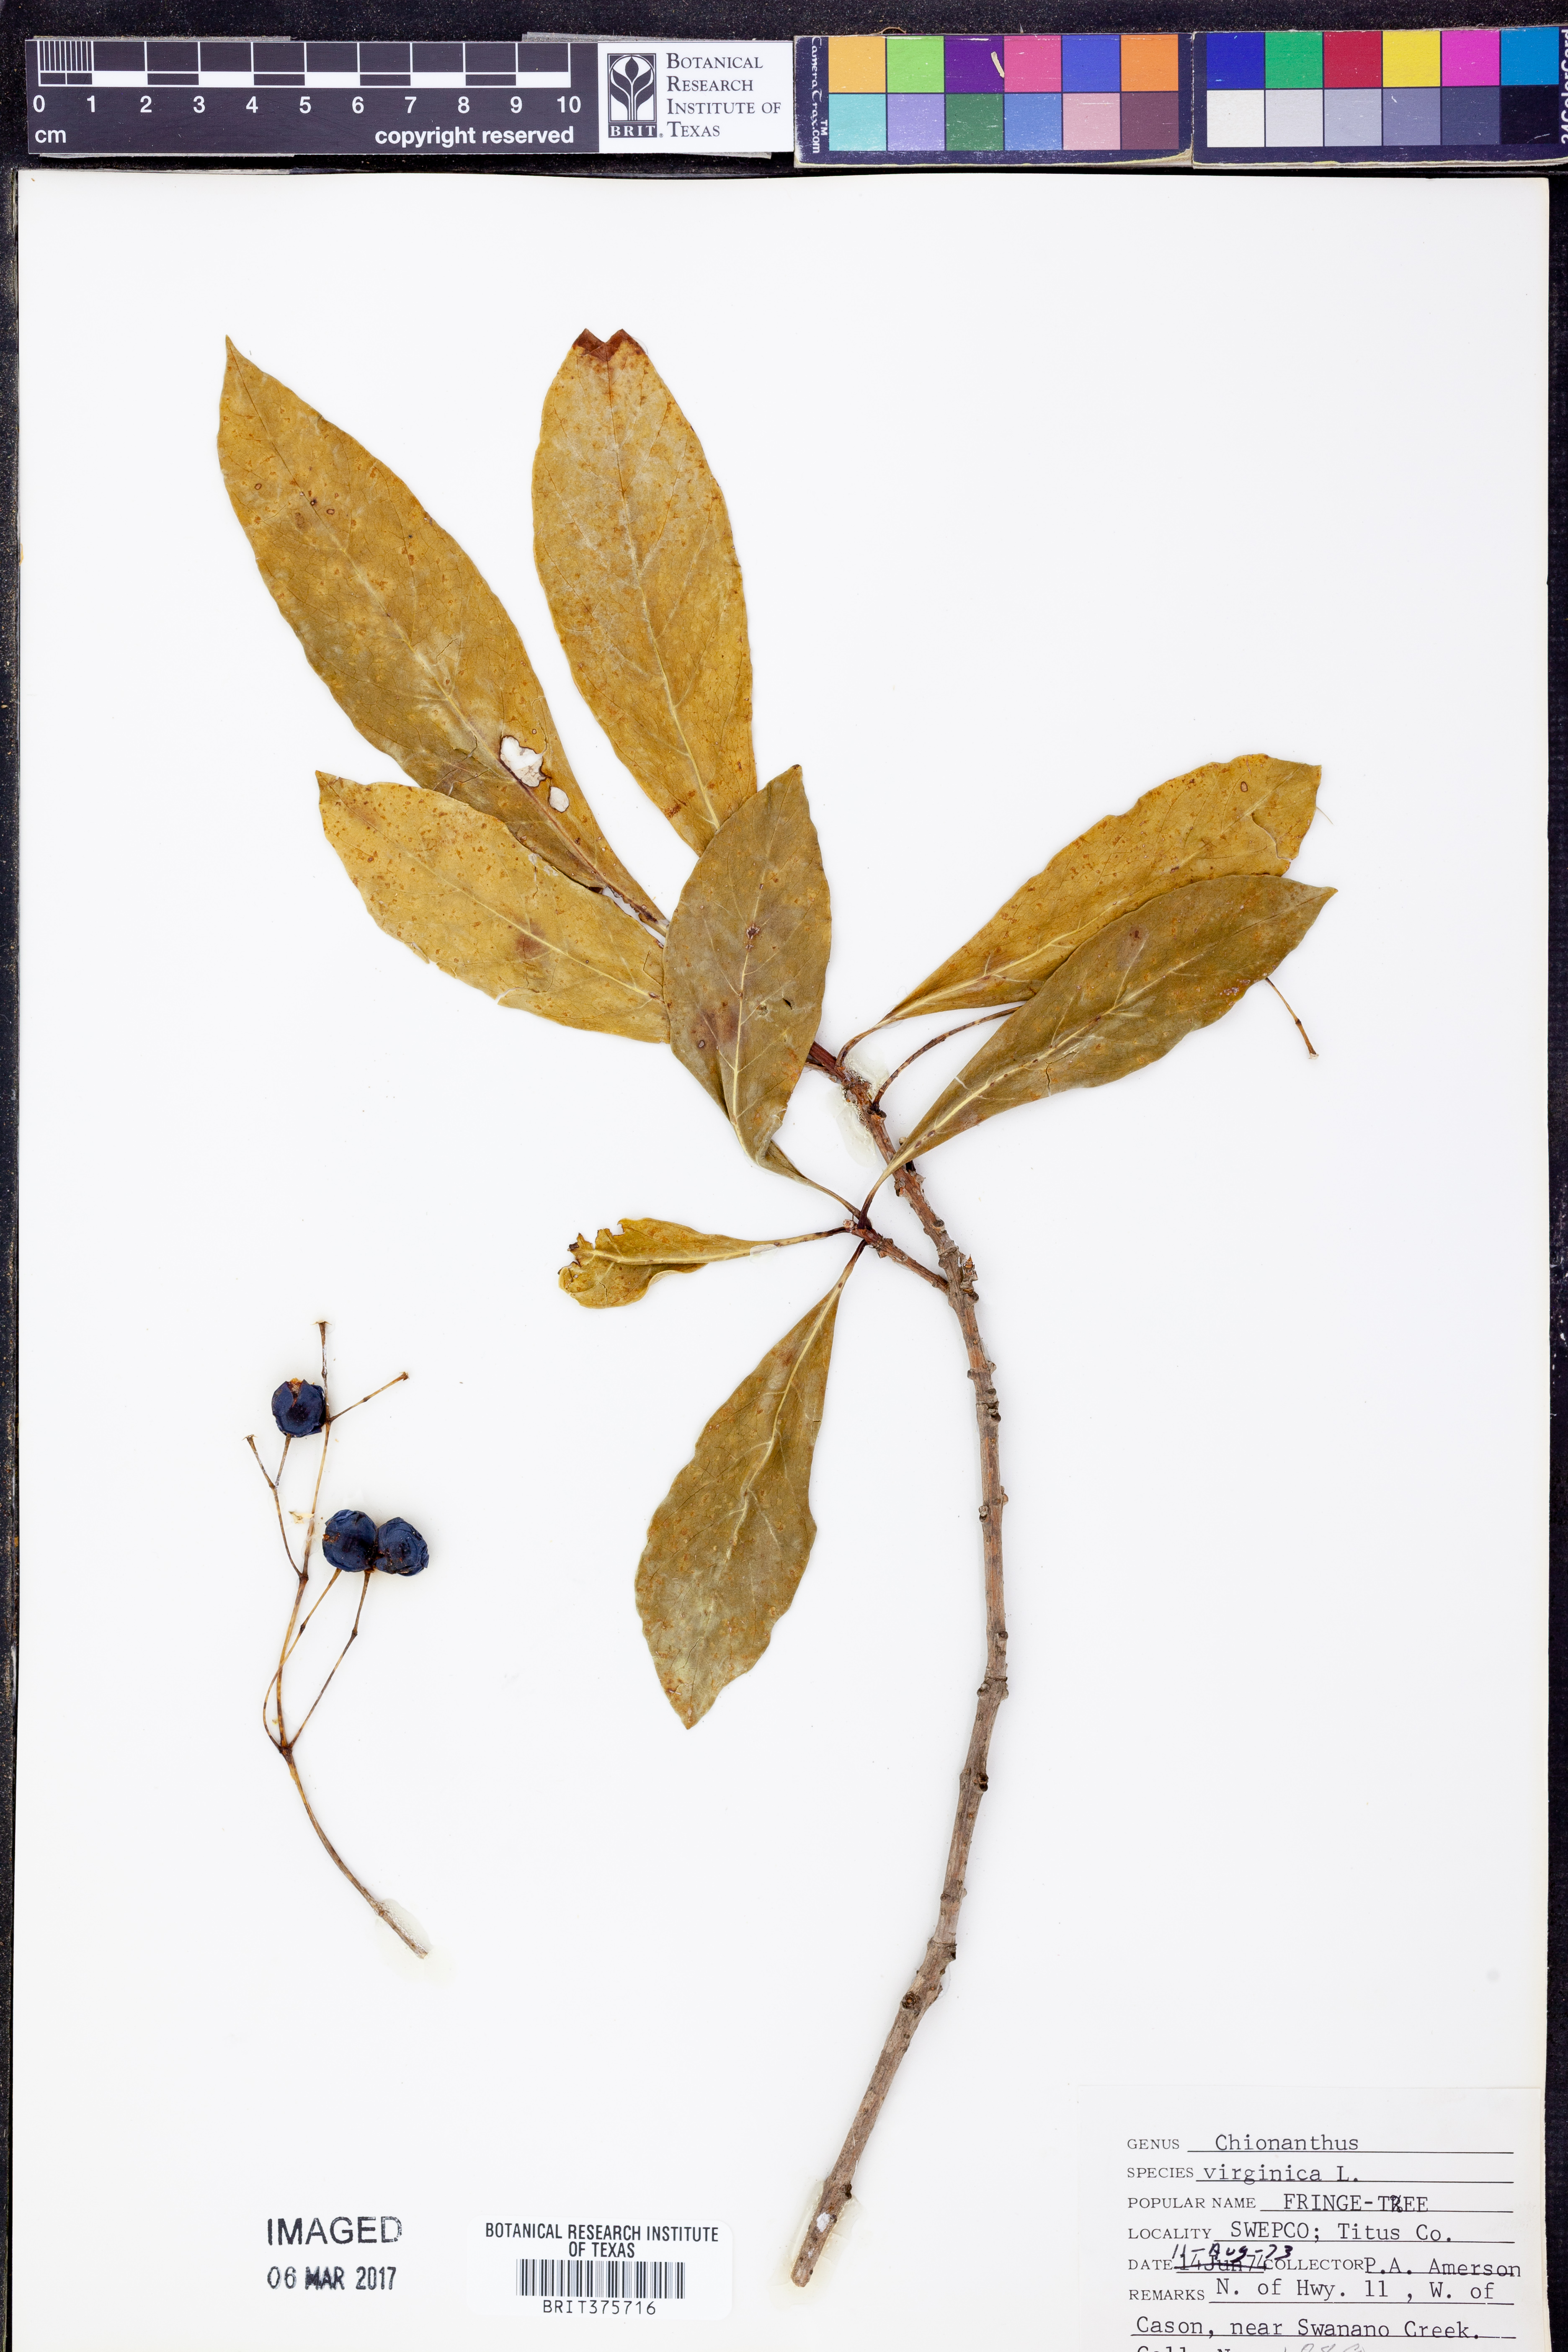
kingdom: Plantae
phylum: Tracheophyta
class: Magnoliopsida
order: Lamiales
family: Oleaceae
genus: Chionanthus
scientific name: Chionanthus virginicus
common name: American fringetree
